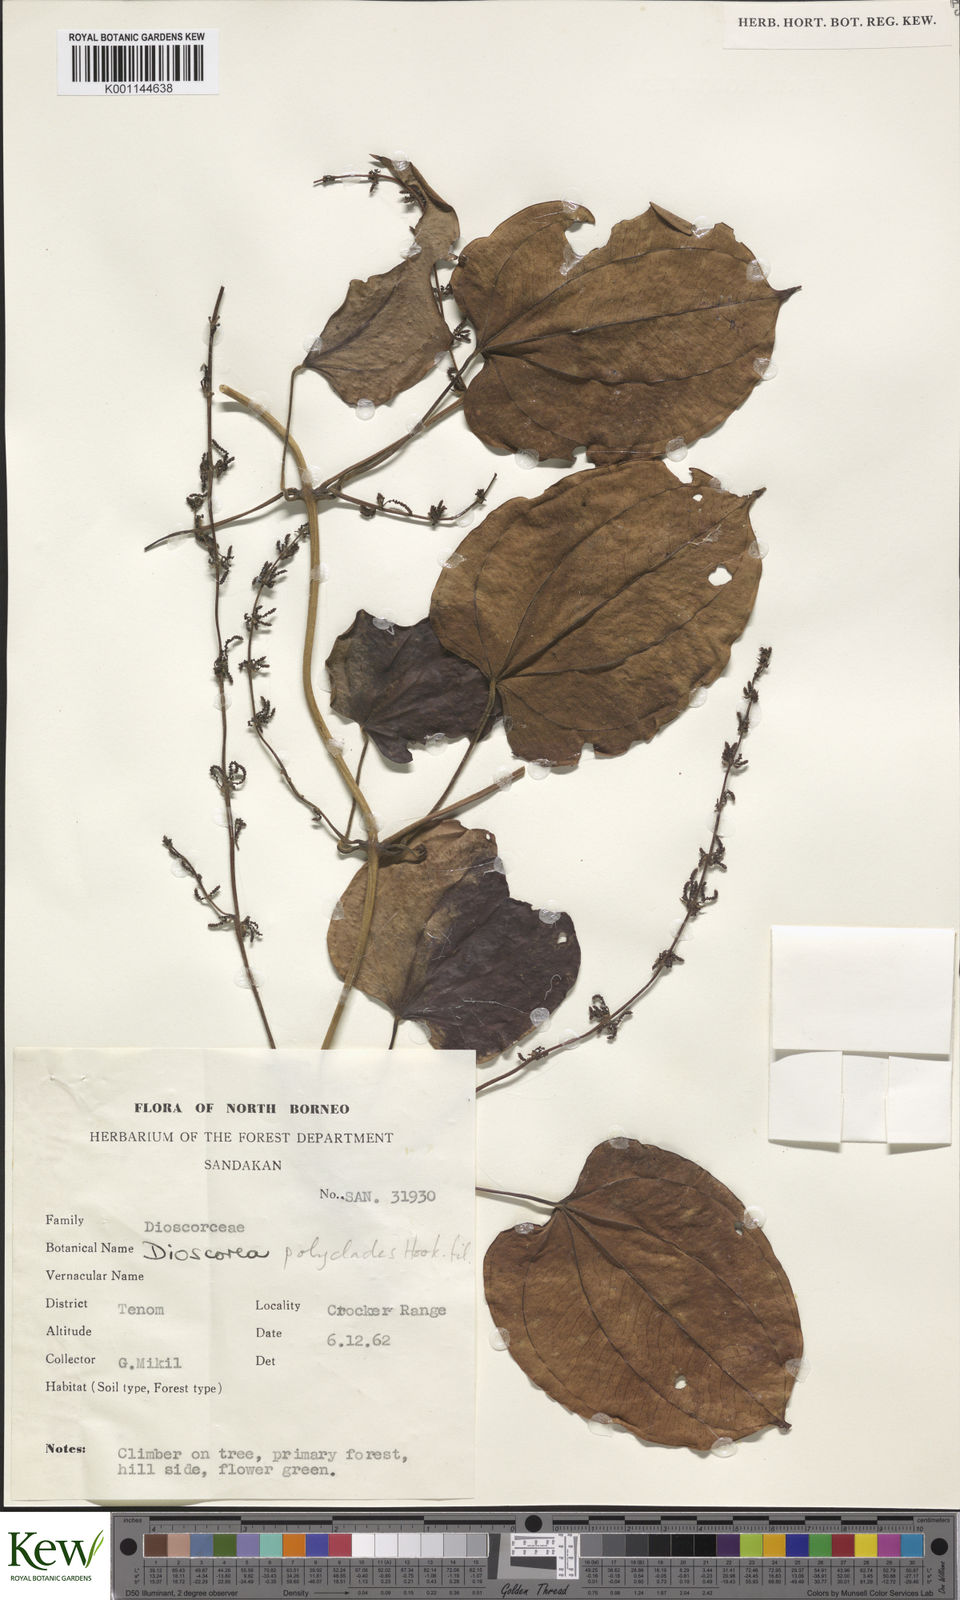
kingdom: Plantae
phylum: Tracheophyta
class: Liliopsida
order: Dioscoreales
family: Dioscoreaceae
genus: Dioscorea
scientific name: Dioscorea polyclados
